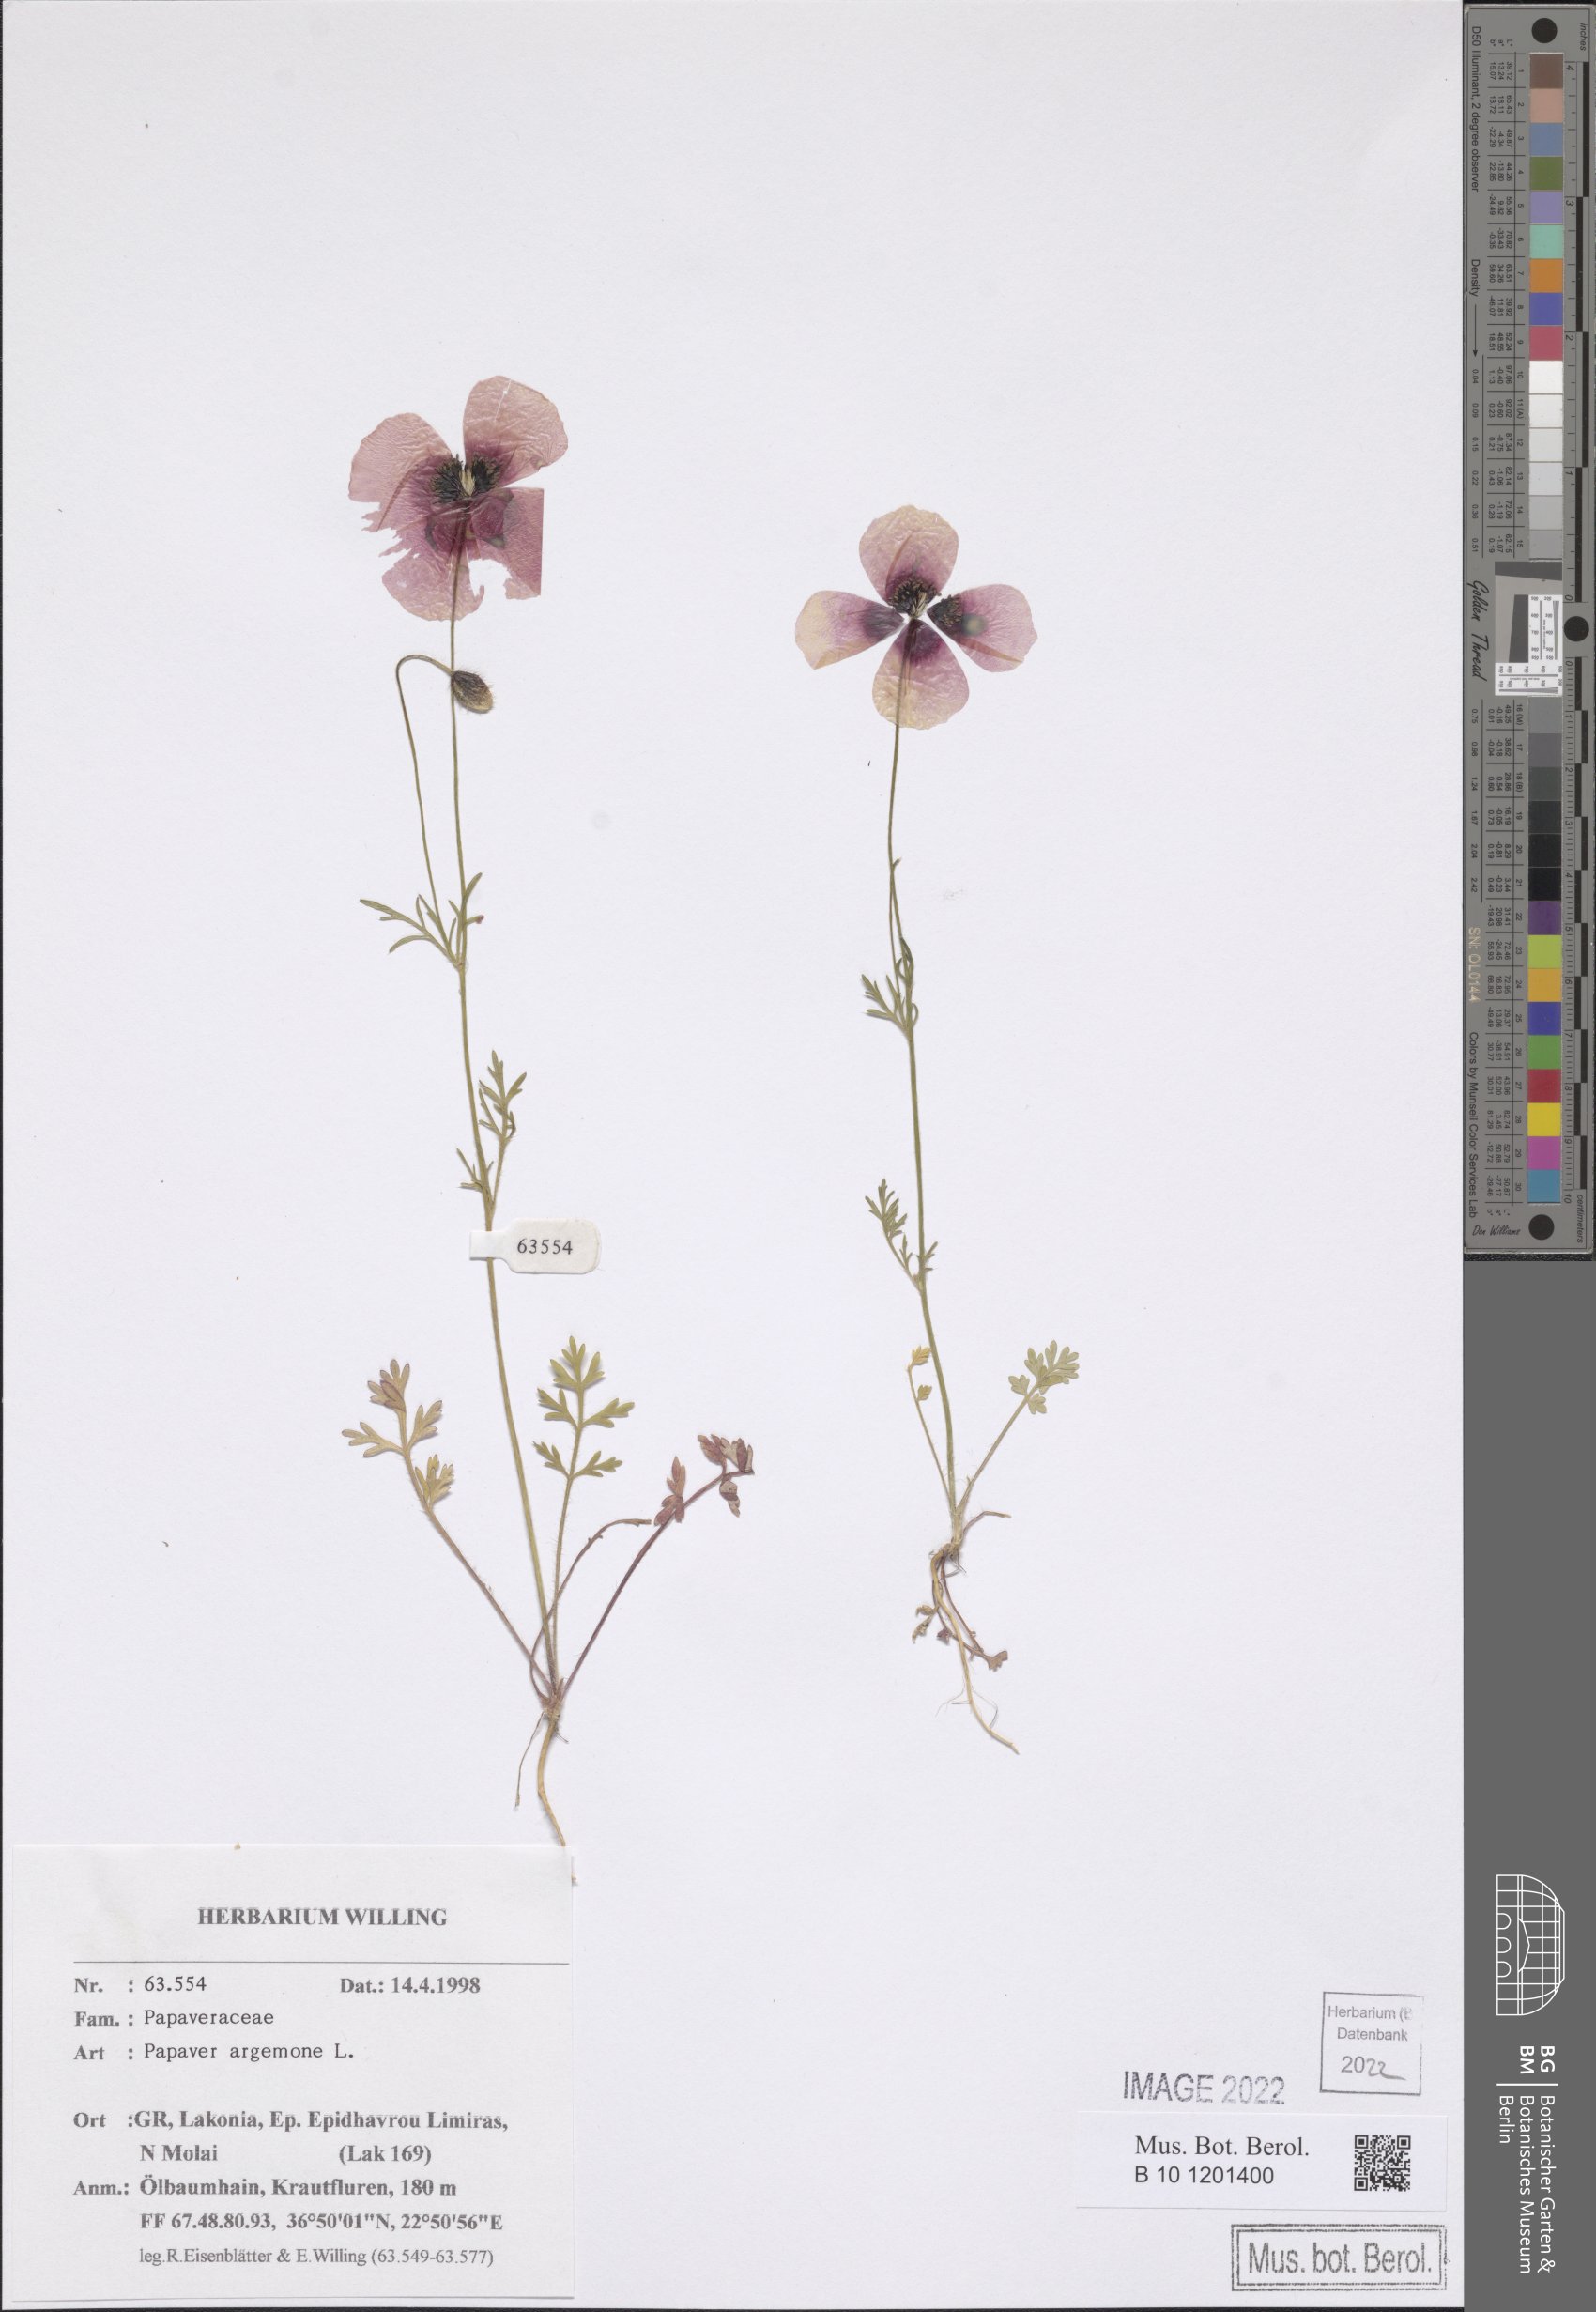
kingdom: Plantae
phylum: Tracheophyta
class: Magnoliopsida
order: Ranunculales
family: Papaveraceae
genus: Roemeria
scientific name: Roemeria argemone
